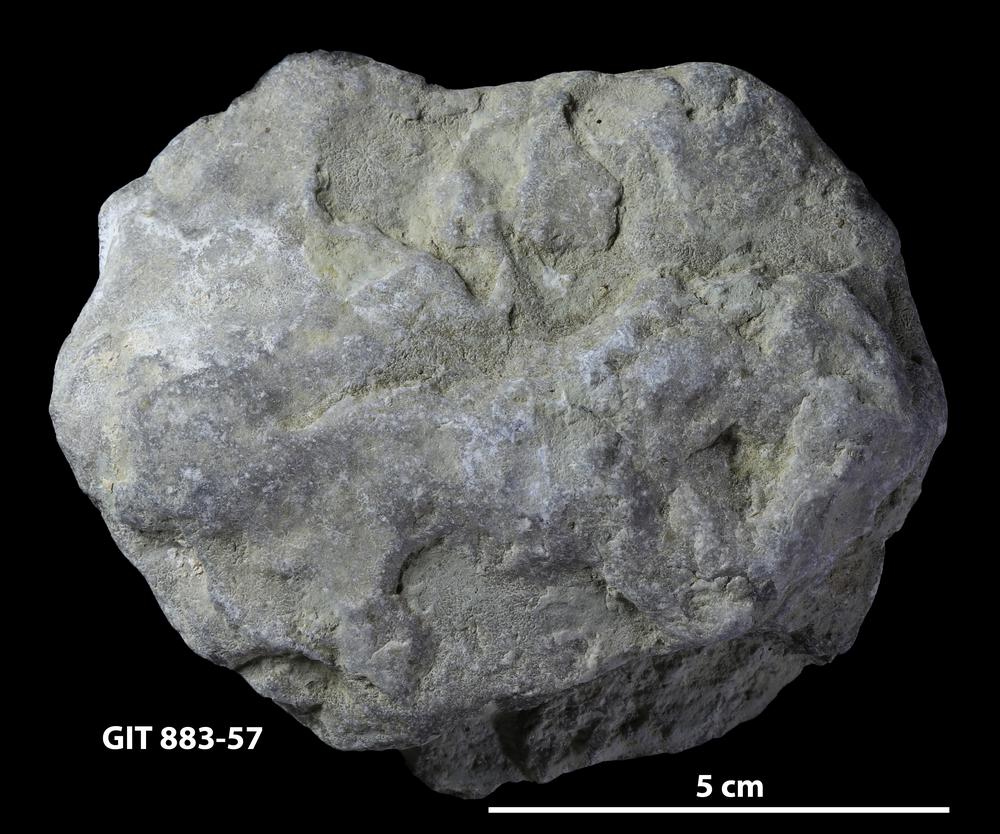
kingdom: Animalia
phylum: Porifera
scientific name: Porifera
